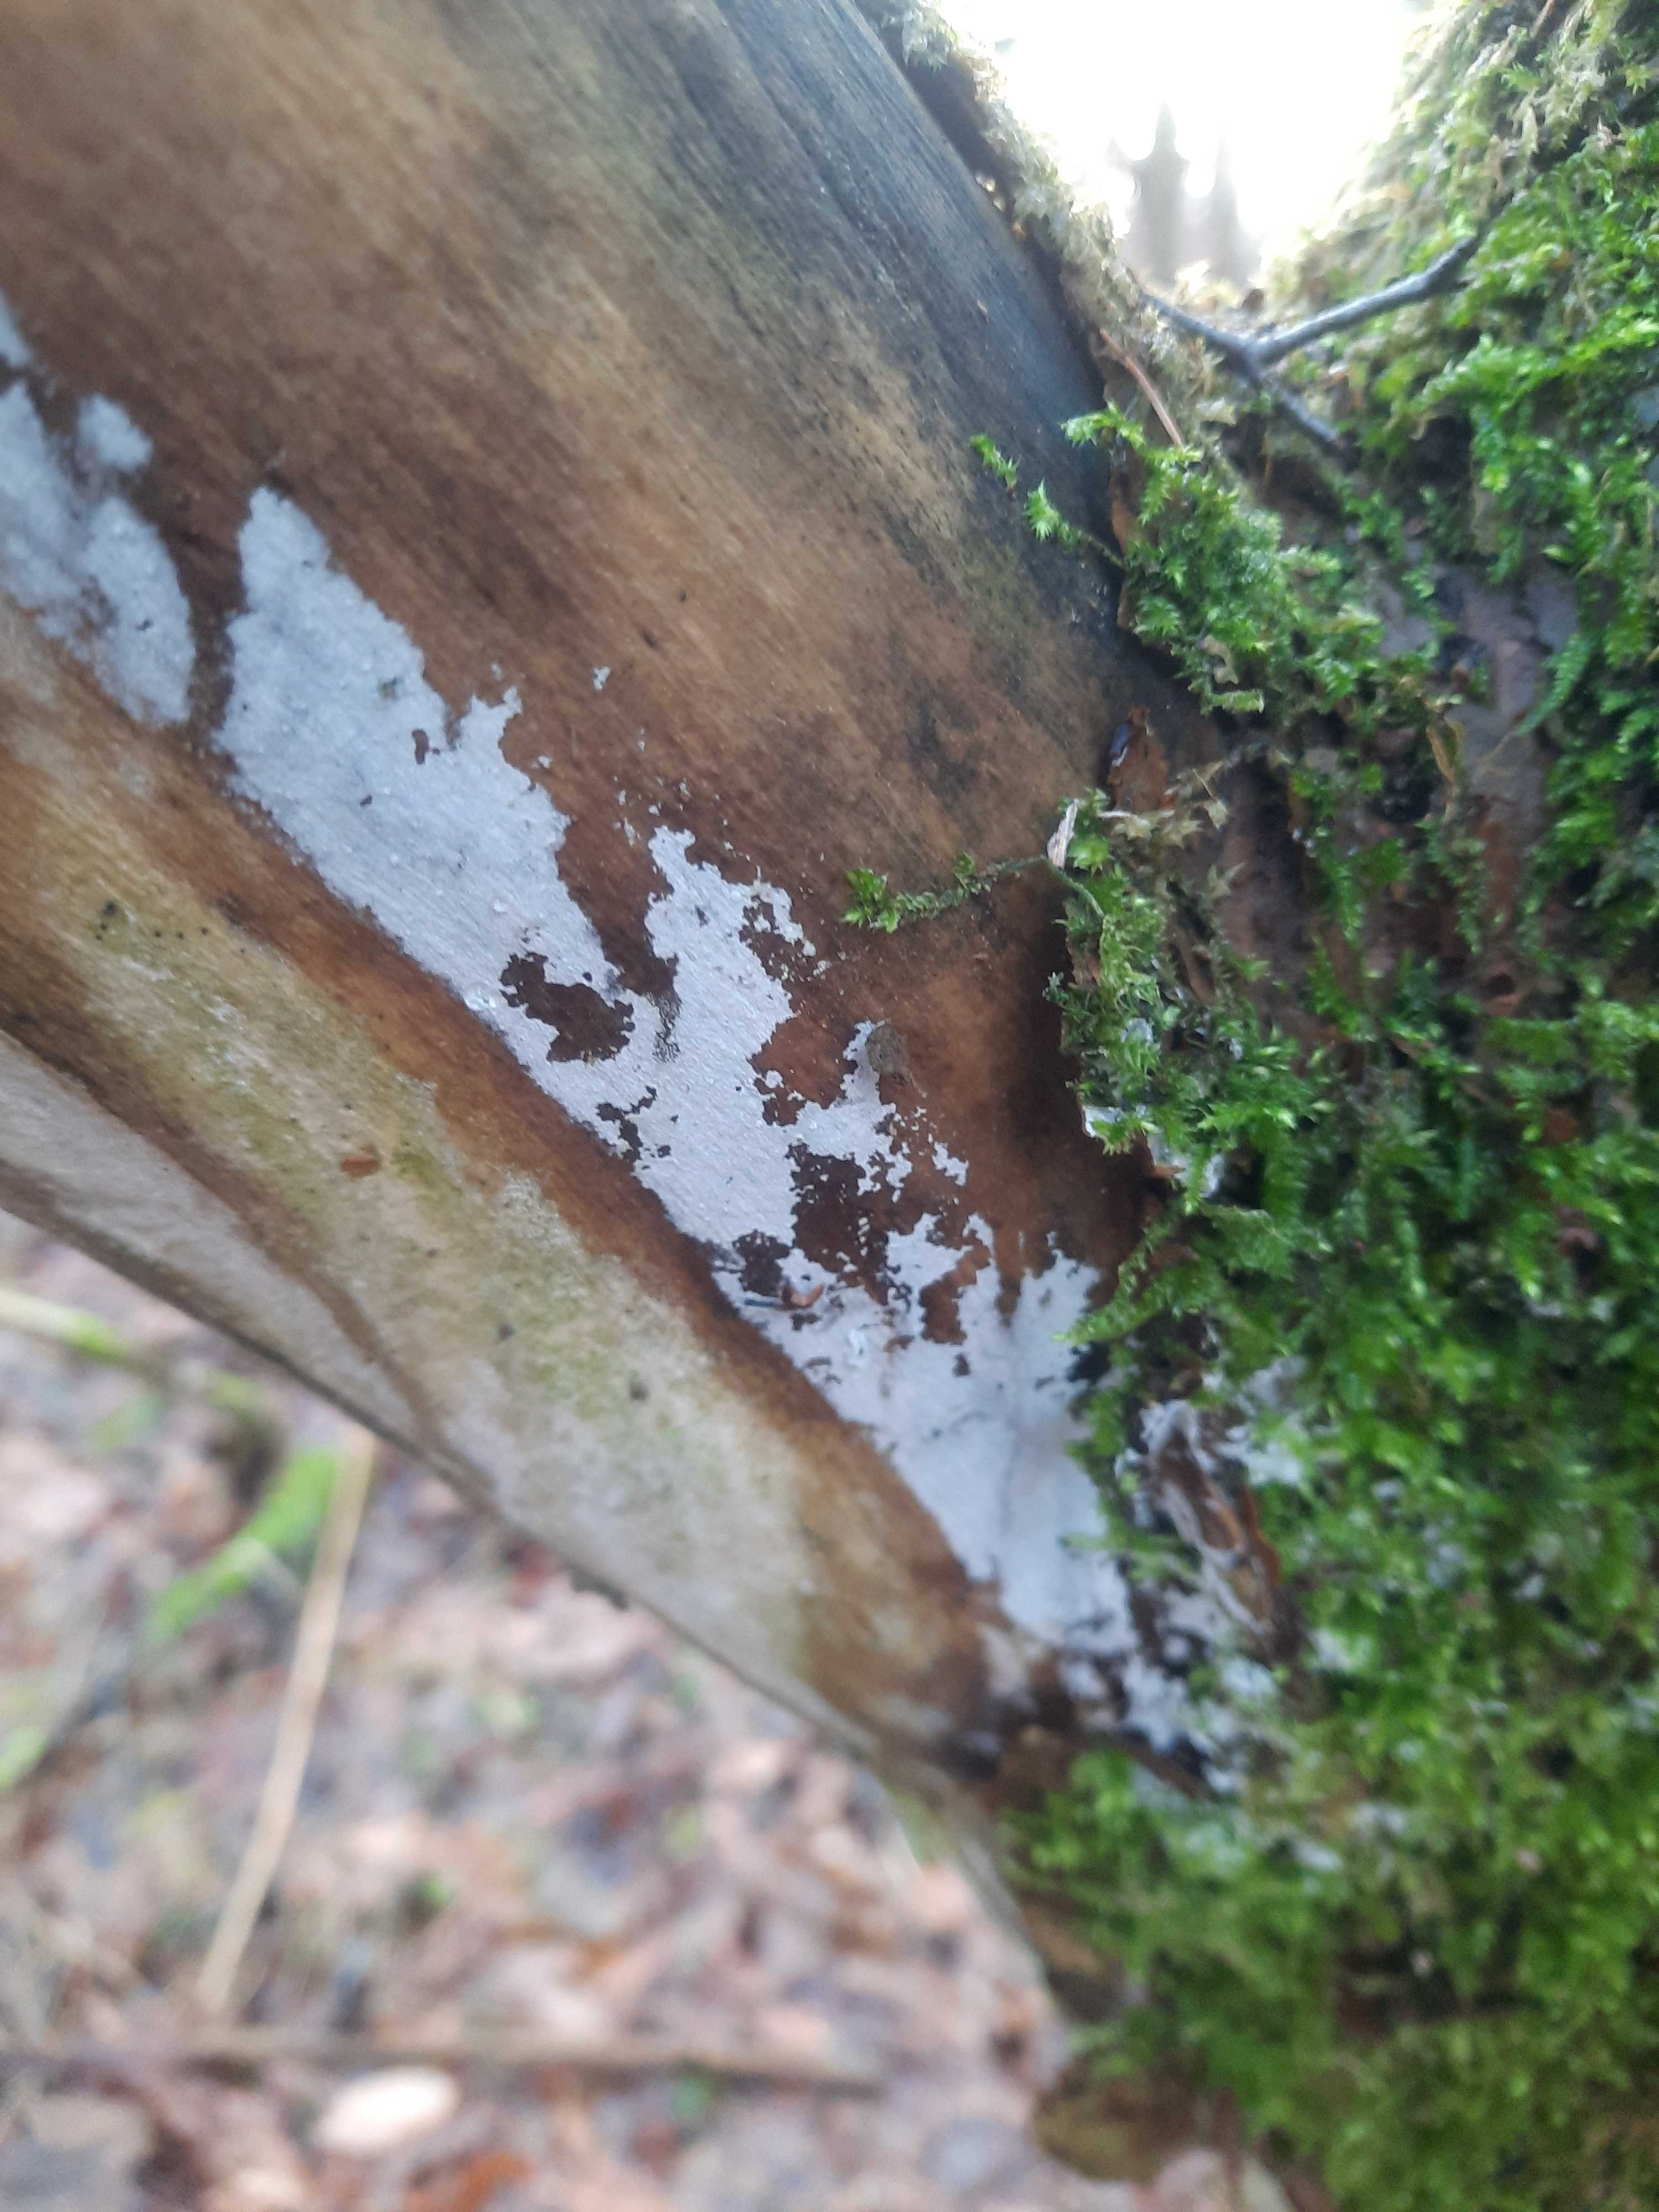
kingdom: Fungi
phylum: Basidiomycota
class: Agaricomycetes
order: Corticiales
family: Corticiaceae
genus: Lyomyces
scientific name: Lyomyces sambuci
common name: almindelig hyldehinde
